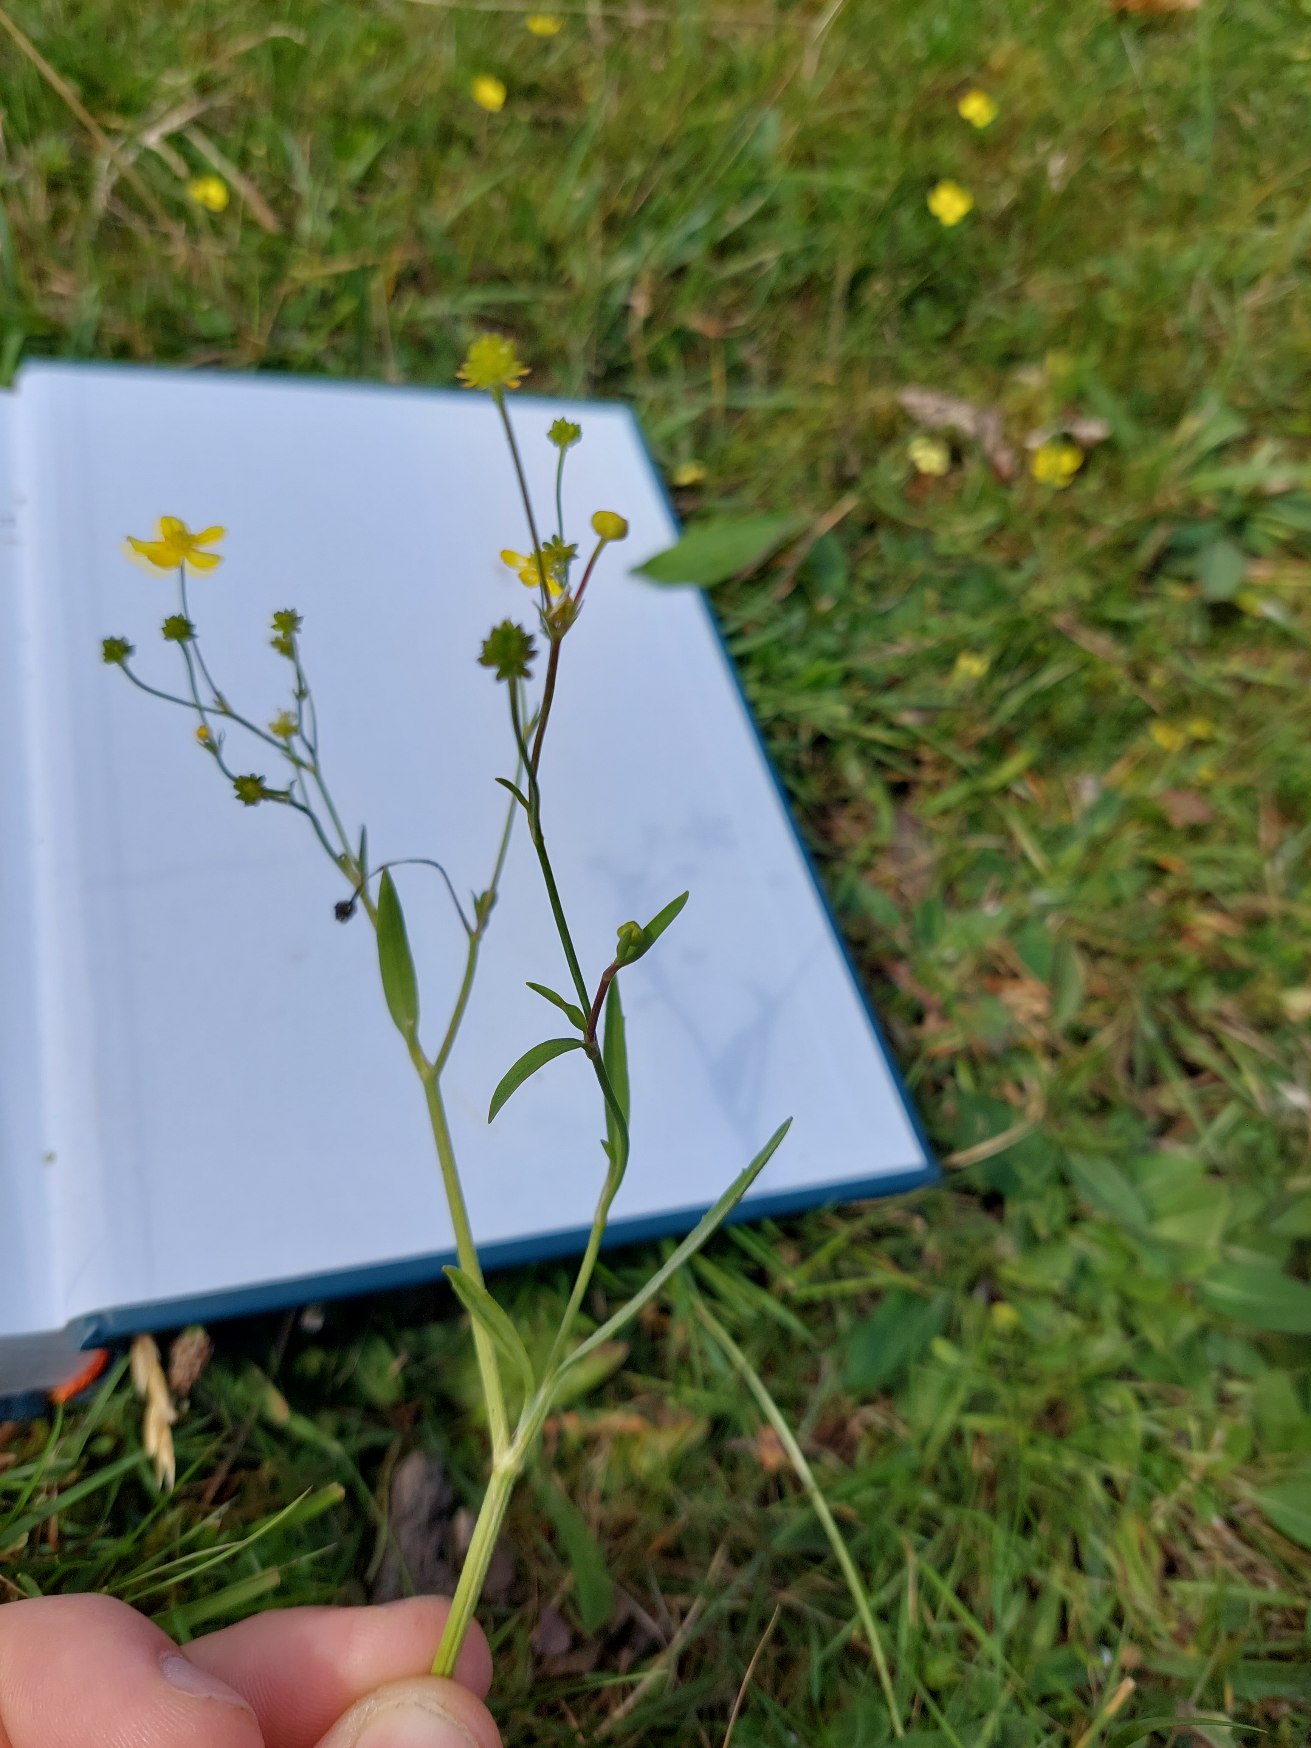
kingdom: Plantae
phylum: Tracheophyta
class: Magnoliopsida
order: Ranunculales
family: Ranunculaceae
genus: Ranunculus
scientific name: Ranunculus flammula
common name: Kær-ranunkel
